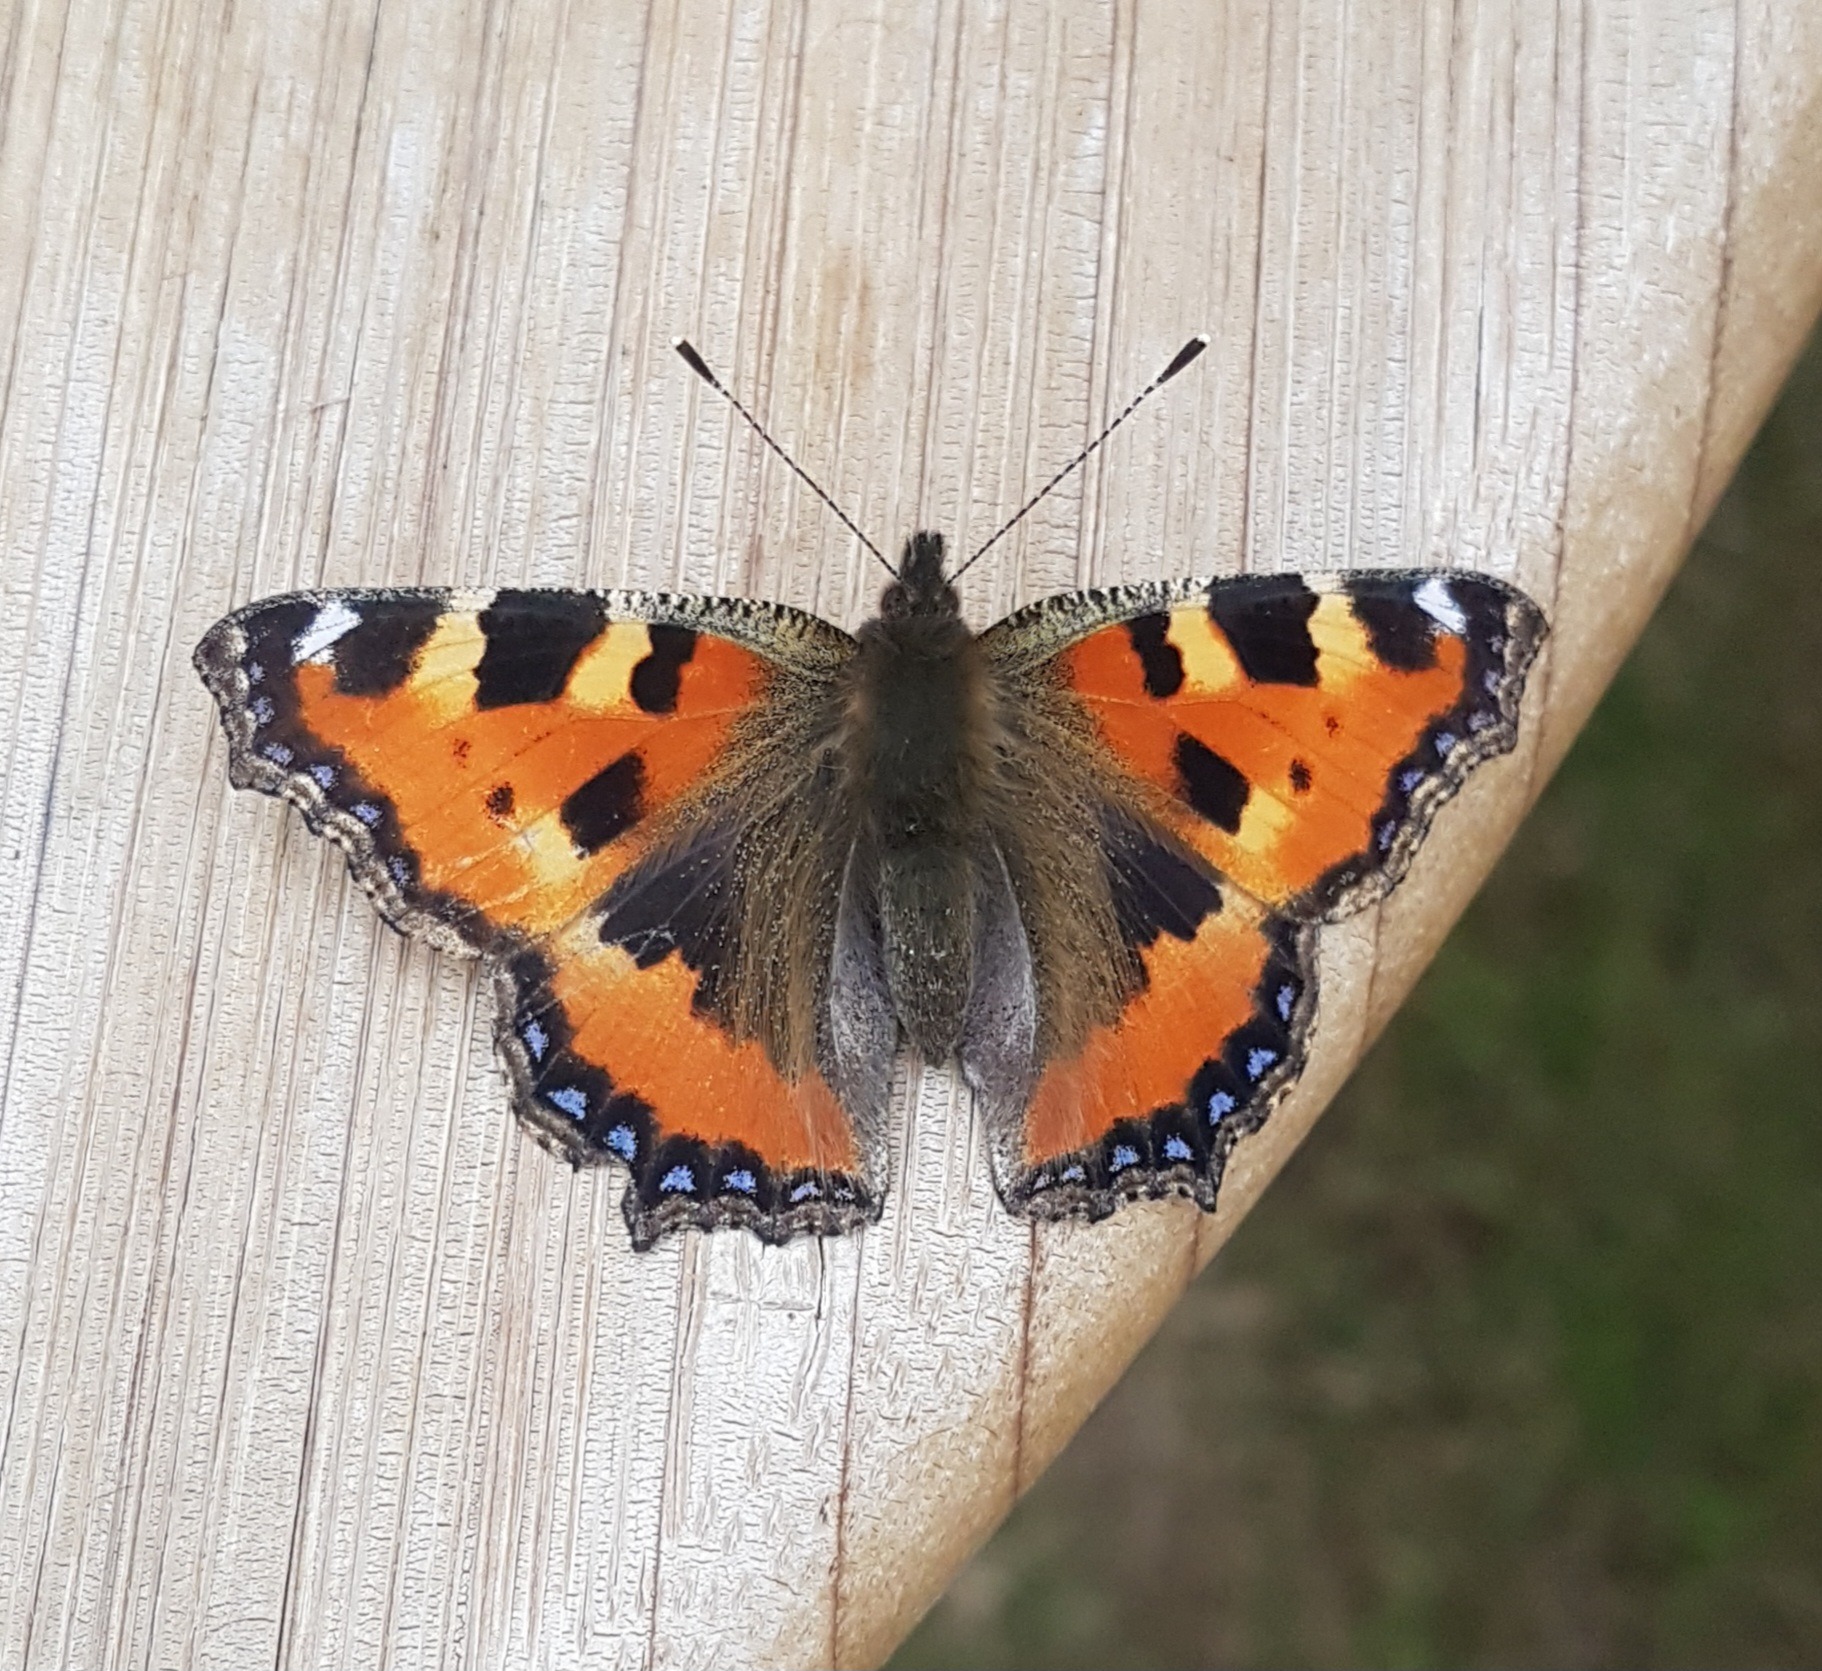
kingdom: Animalia
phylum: Arthropoda
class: Insecta
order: Lepidoptera
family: Nymphalidae
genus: Aglais
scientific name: Aglais urticae
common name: Nældens takvinge
